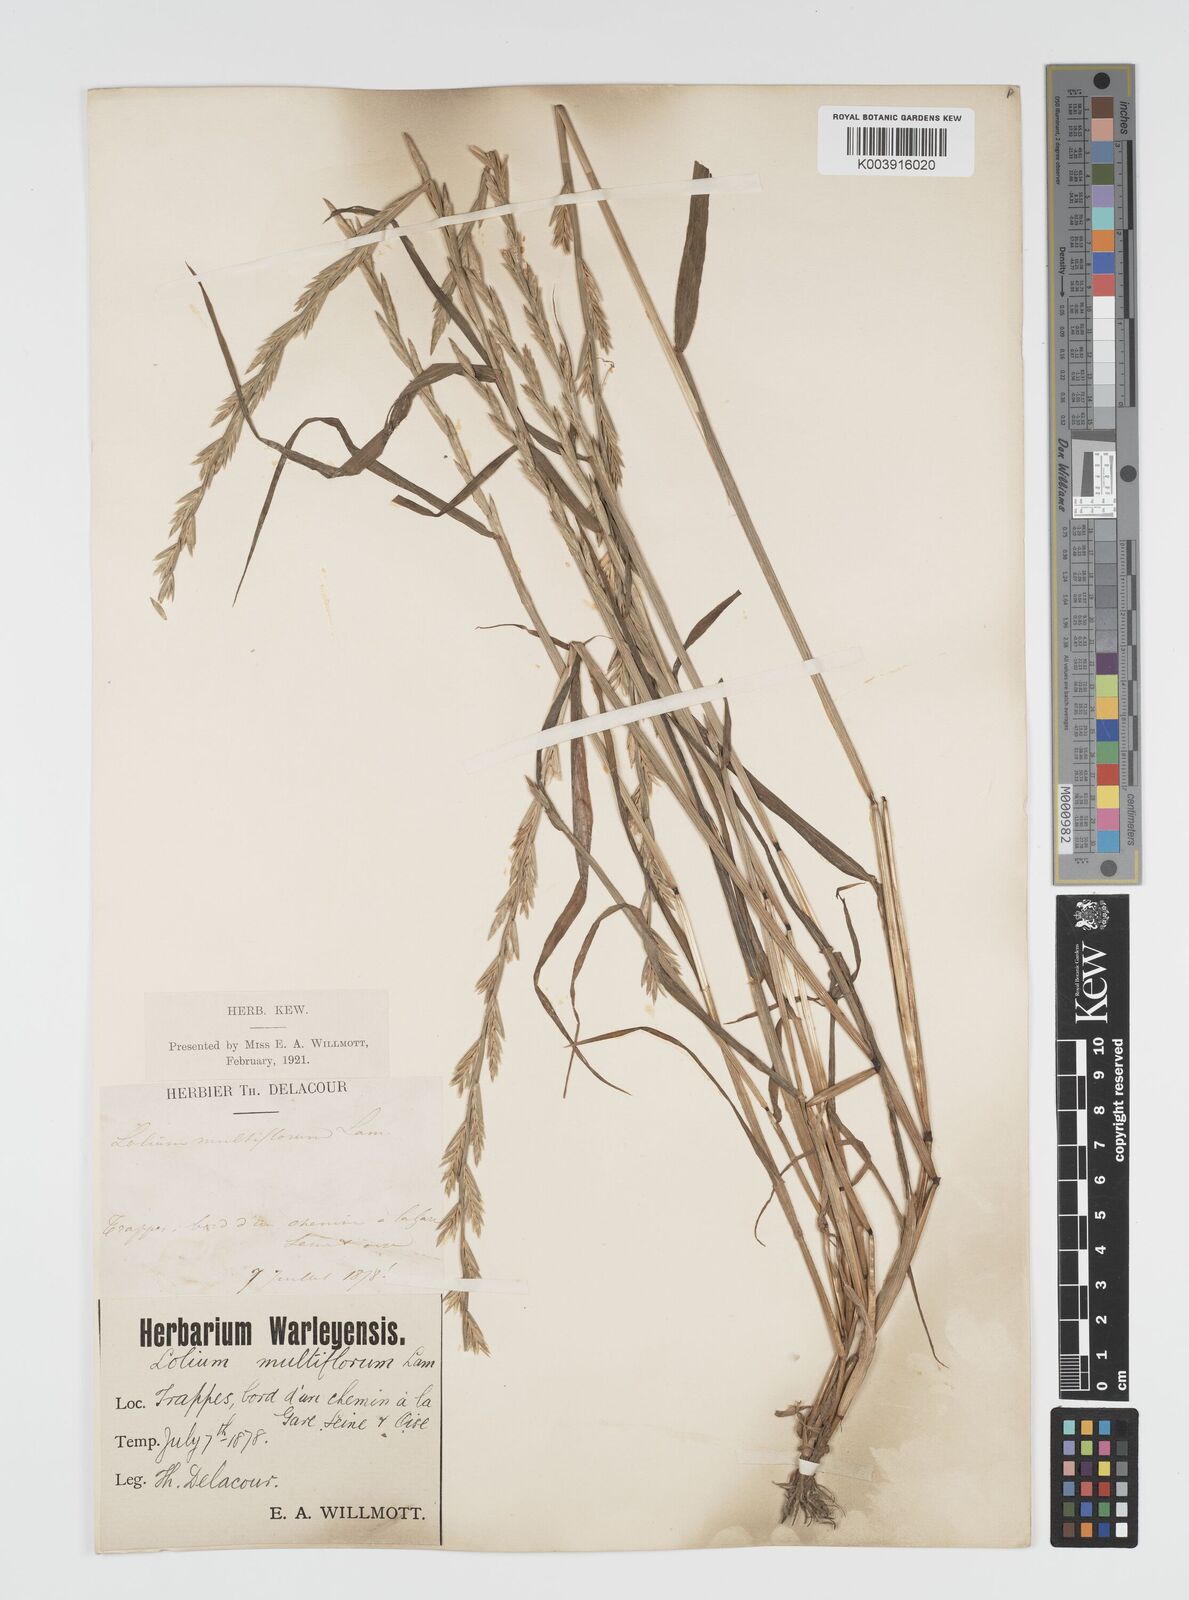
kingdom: Plantae
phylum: Tracheophyta
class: Liliopsida
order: Poales
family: Poaceae
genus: Lolium
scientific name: Lolium multiflorum
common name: Annual ryegrass
